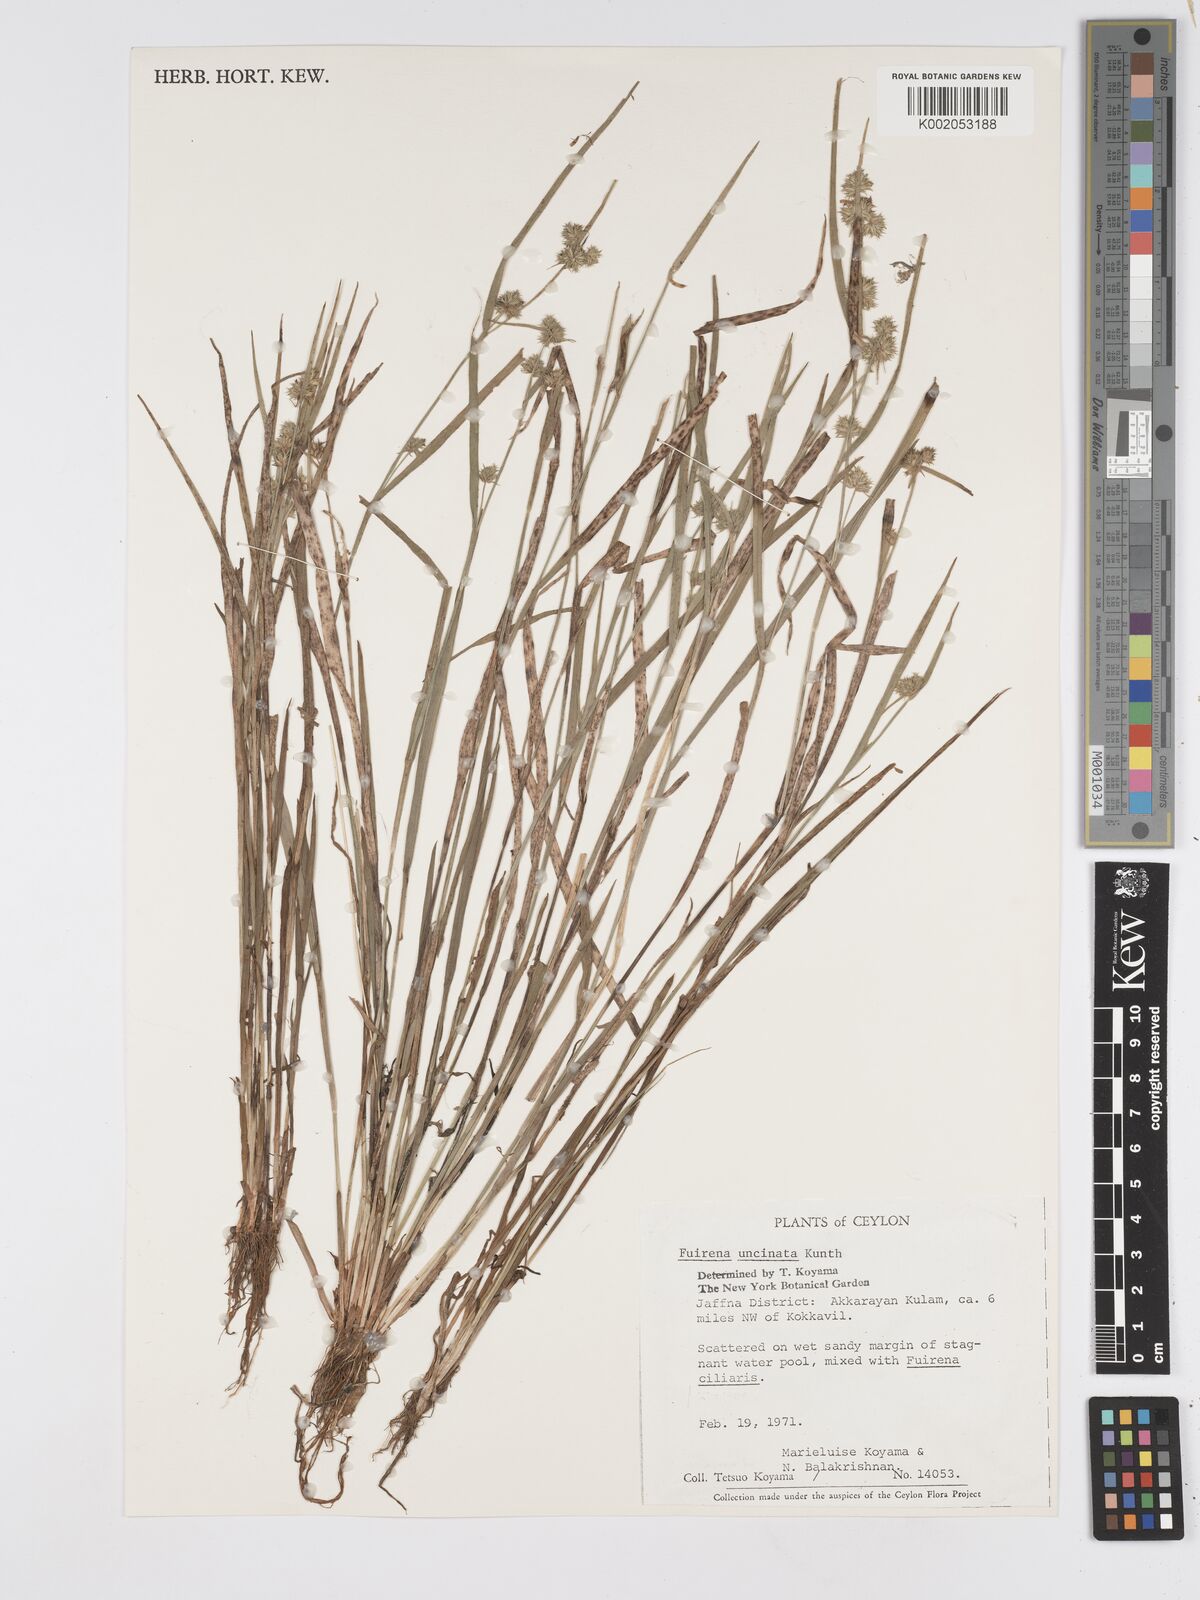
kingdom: Plantae
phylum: Tracheophyta
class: Liliopsida
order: Poales
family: Cyperaceae
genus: Fuirena
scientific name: Fuirena uncinata
